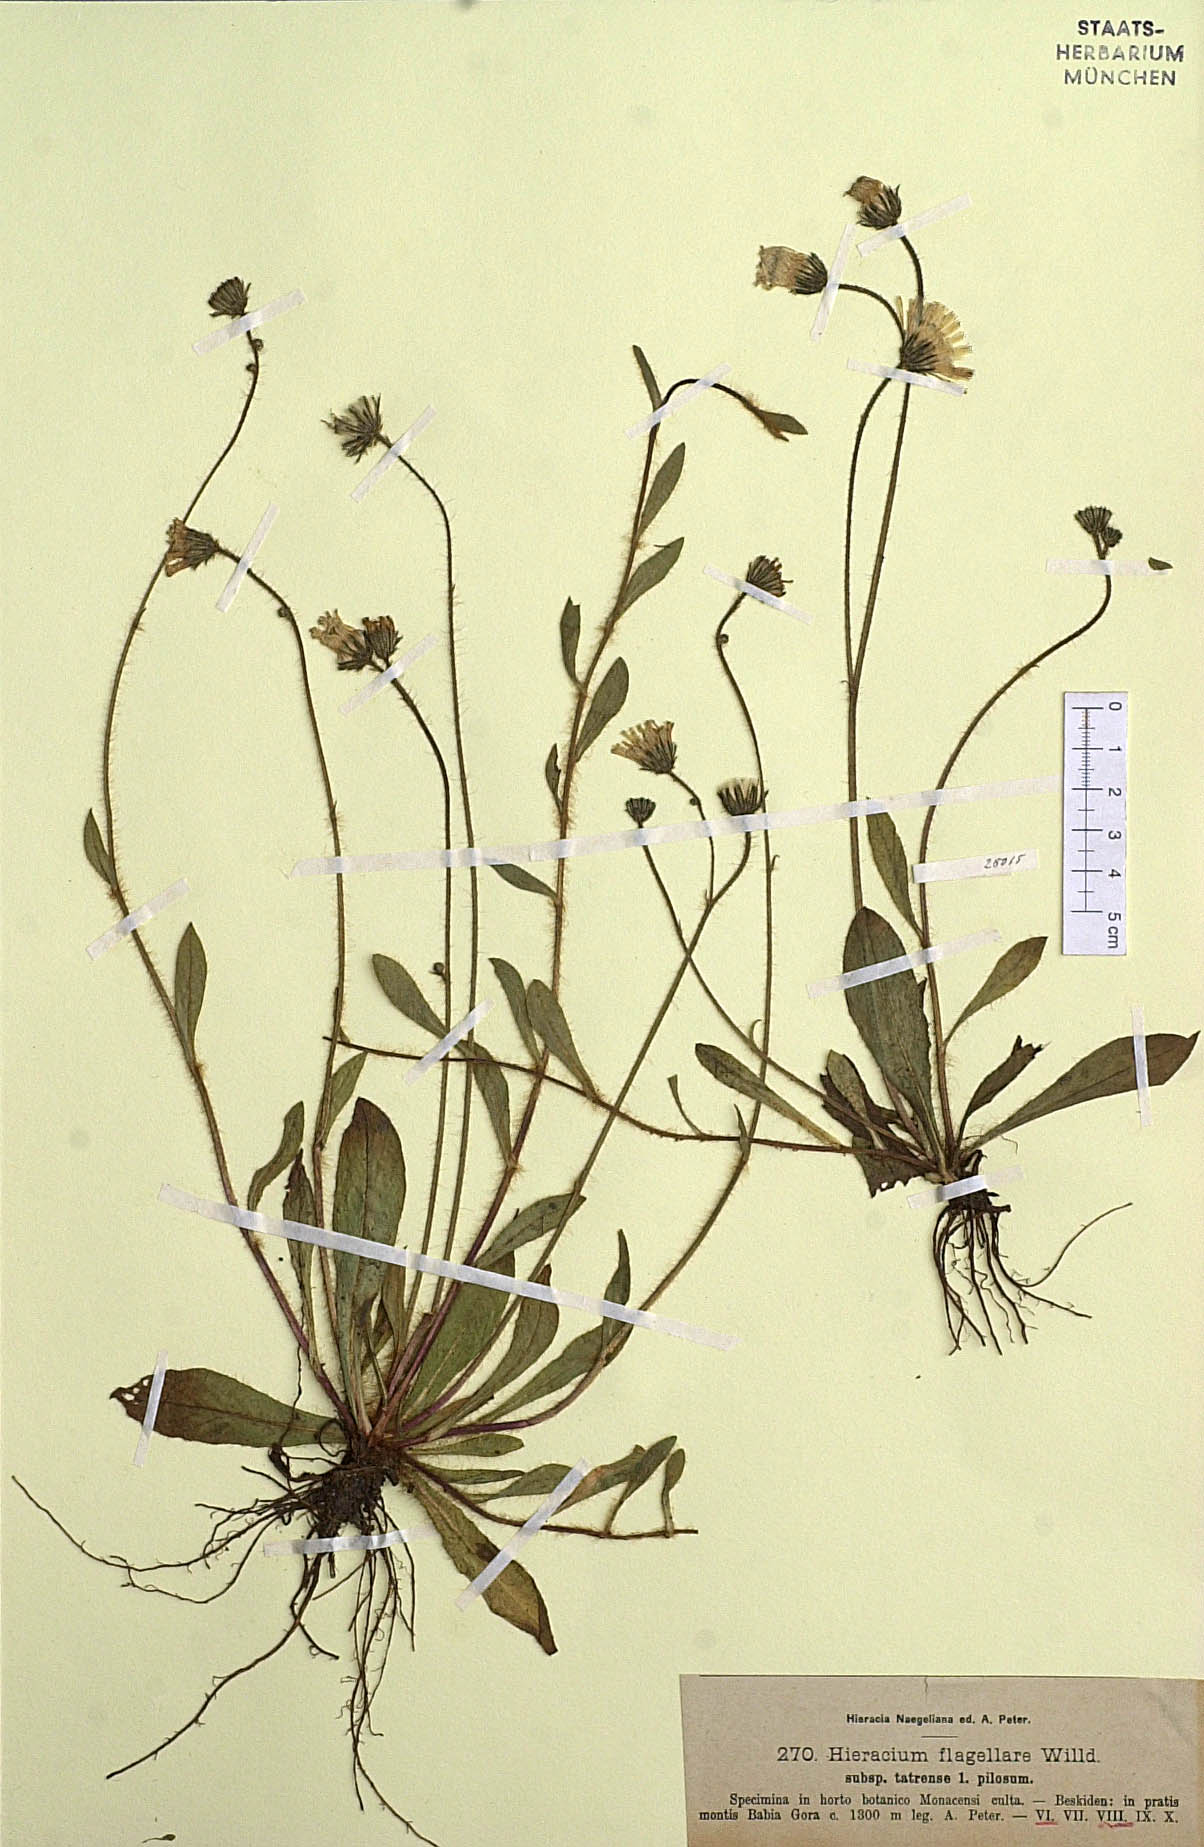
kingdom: Plantae
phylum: Tracheophyta
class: Magnoliopsida
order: Asterales
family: Asteraceae
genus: Pilosella
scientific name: Pilosella
